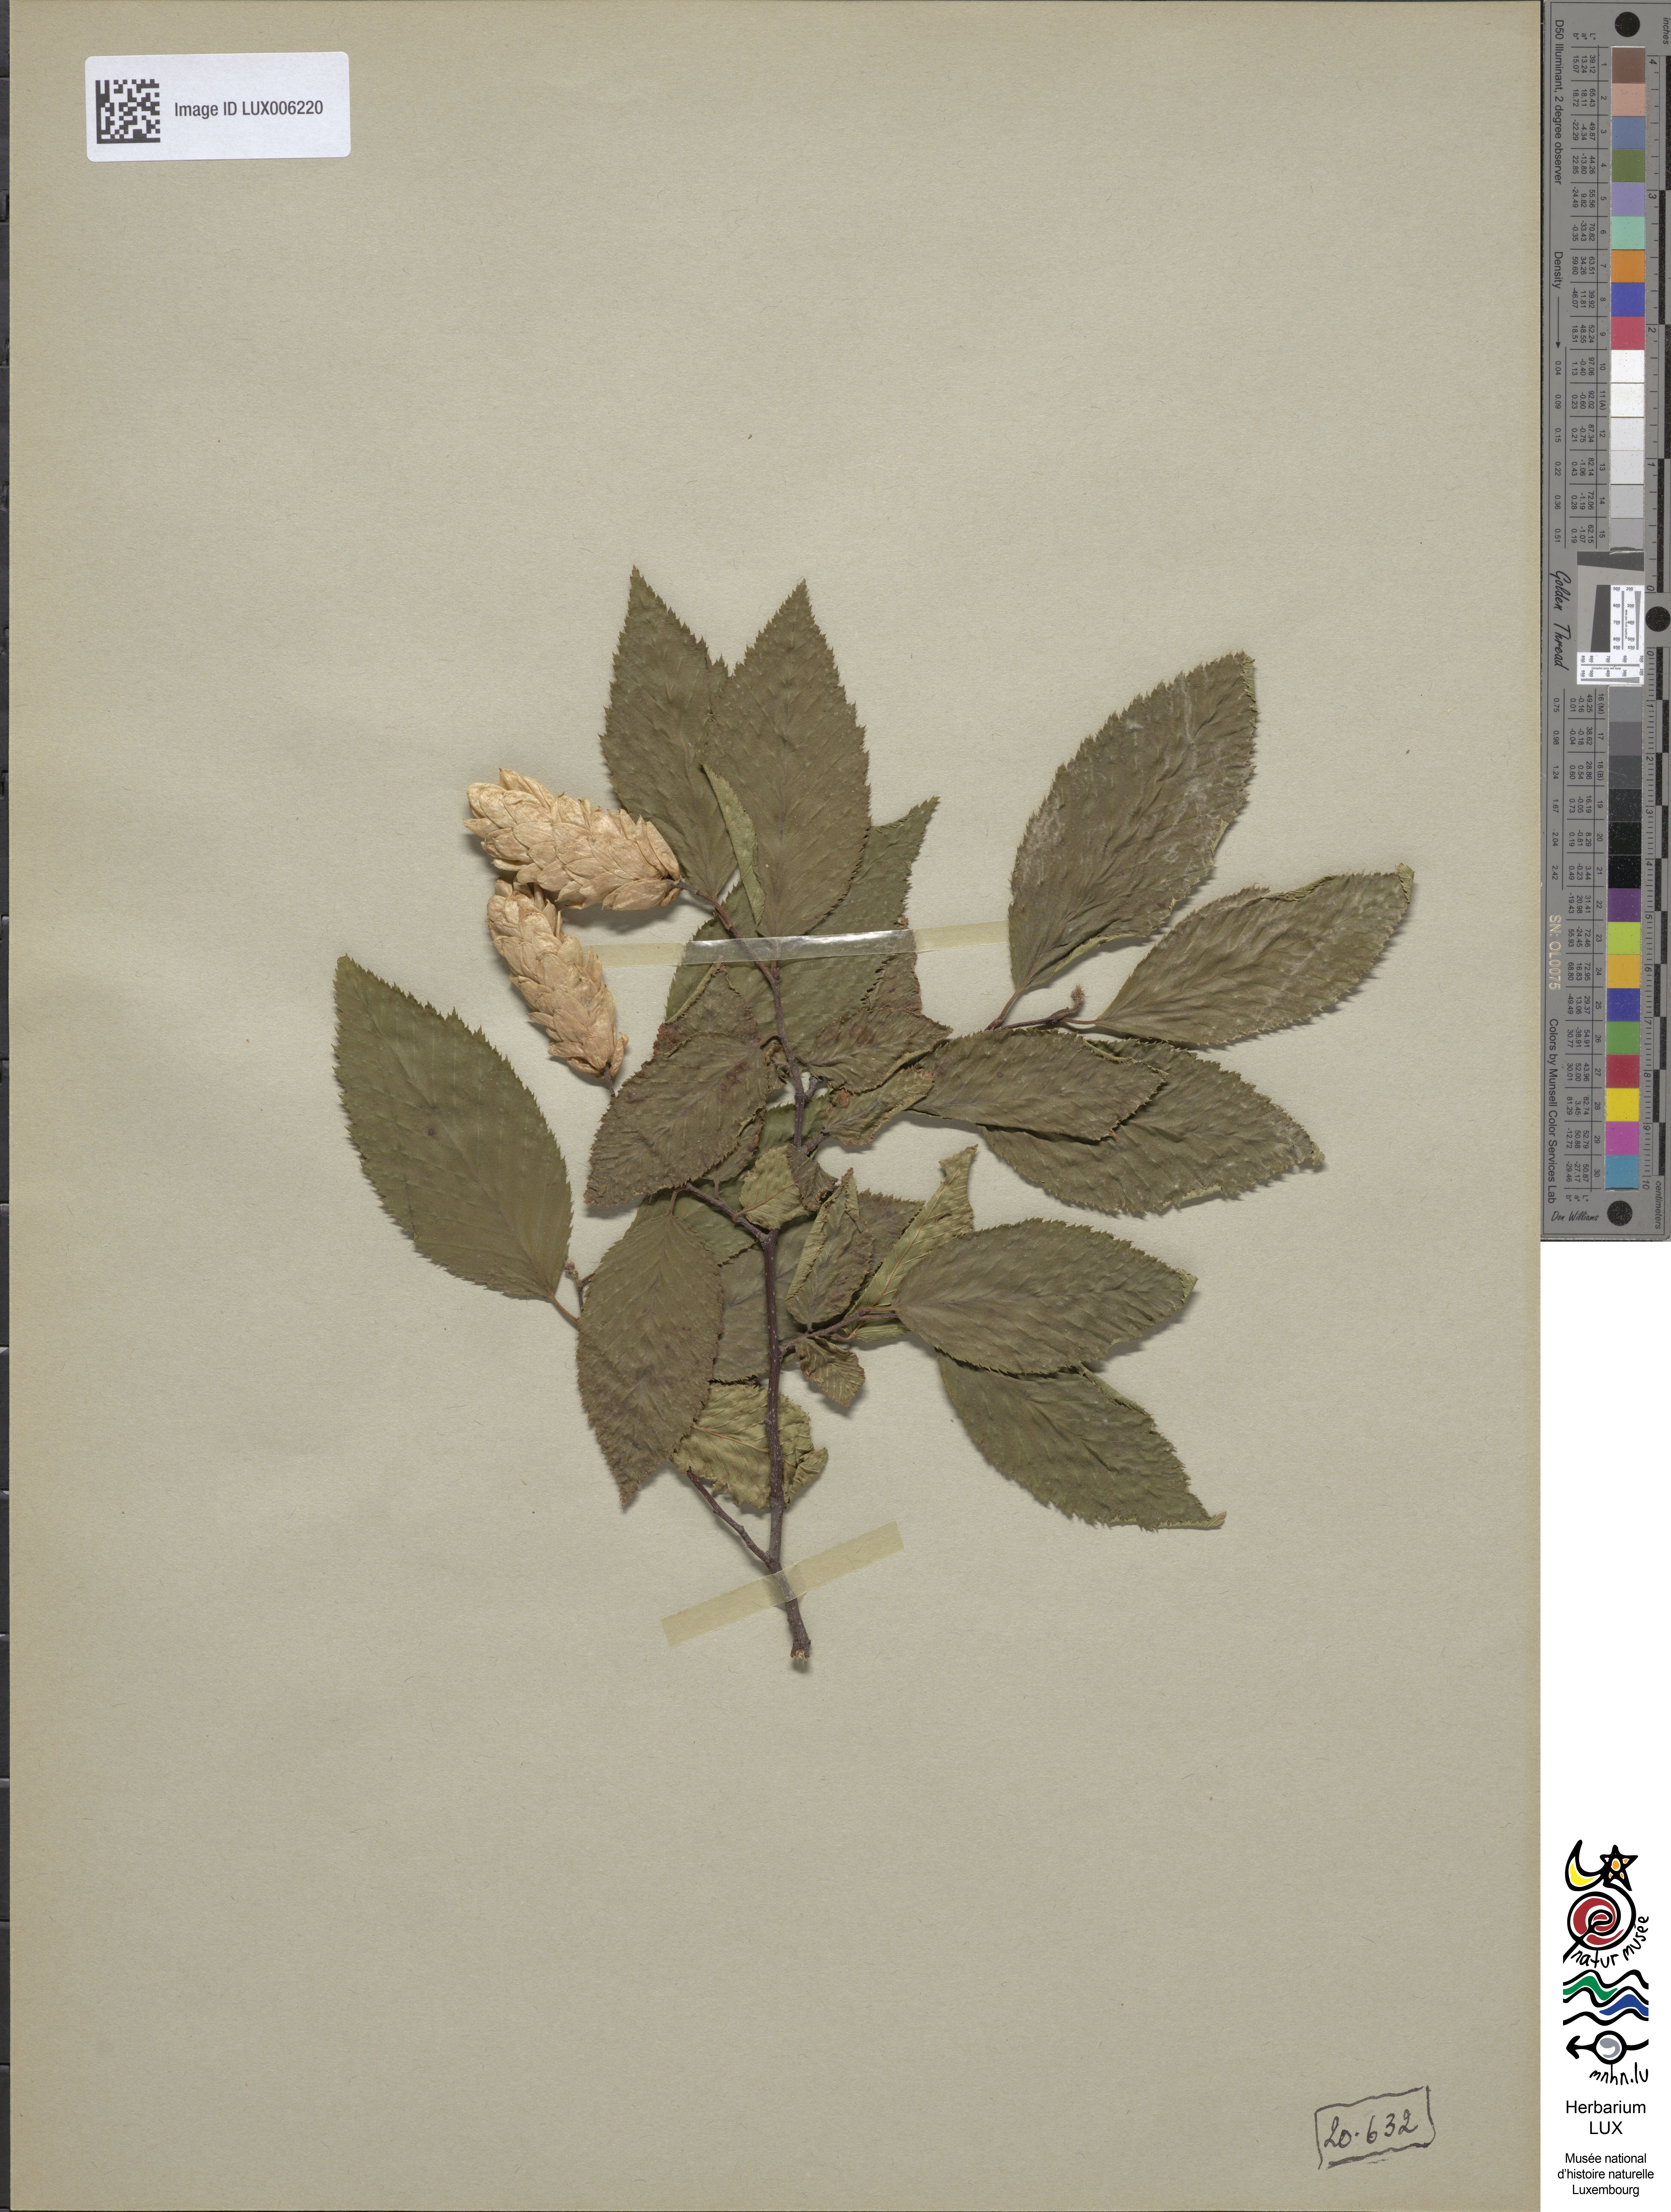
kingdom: Plantae
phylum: Tracheophyta
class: Magnoliopsida
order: Fagales
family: Betulaceae
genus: Ostrya
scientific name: Ostrya carpinifolia
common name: European hop-hornbeam
